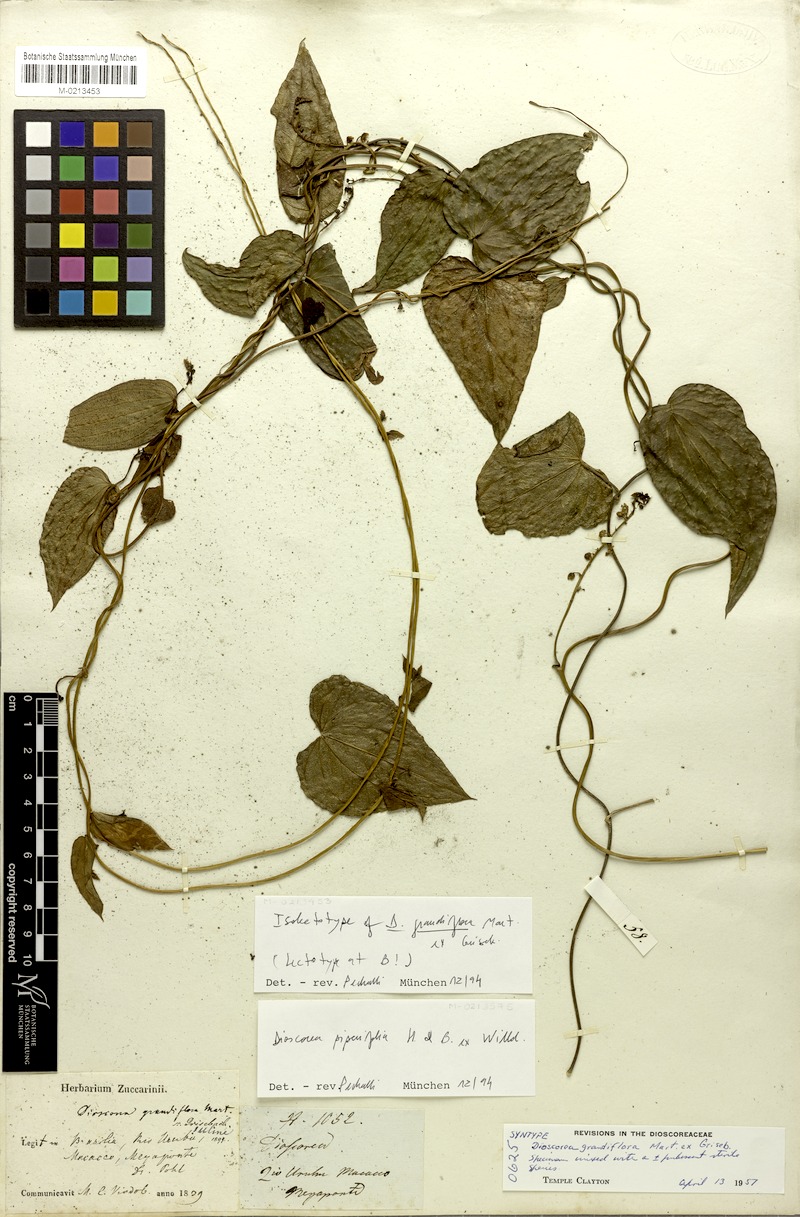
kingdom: Plantae
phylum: Tracheophyta
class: Liliopsida
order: Dioscoreales
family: Dioscoreaceae
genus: Dioscorea
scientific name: Dioscorea grandiflora
